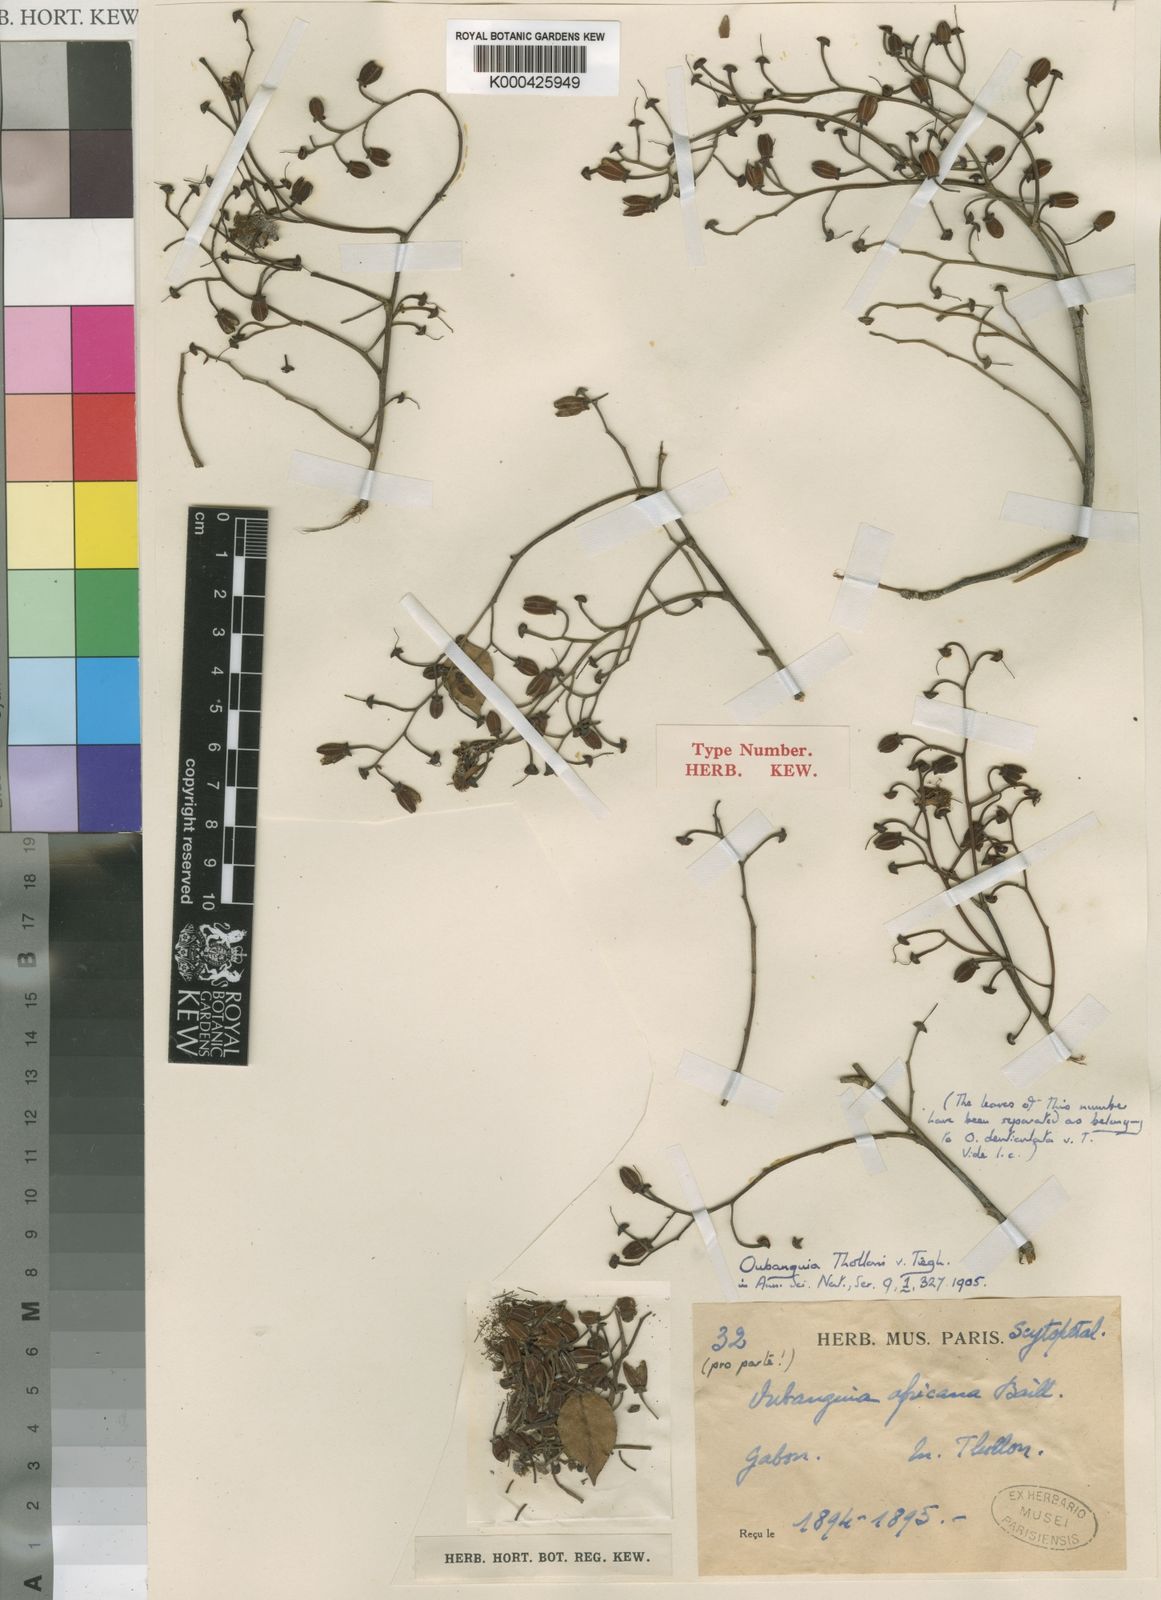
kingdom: Plantae
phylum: Tracheophyta
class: Magnoliopsida
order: Ericales
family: Lecythidaceae
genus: Oubanguia
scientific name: Oubanguia africana
